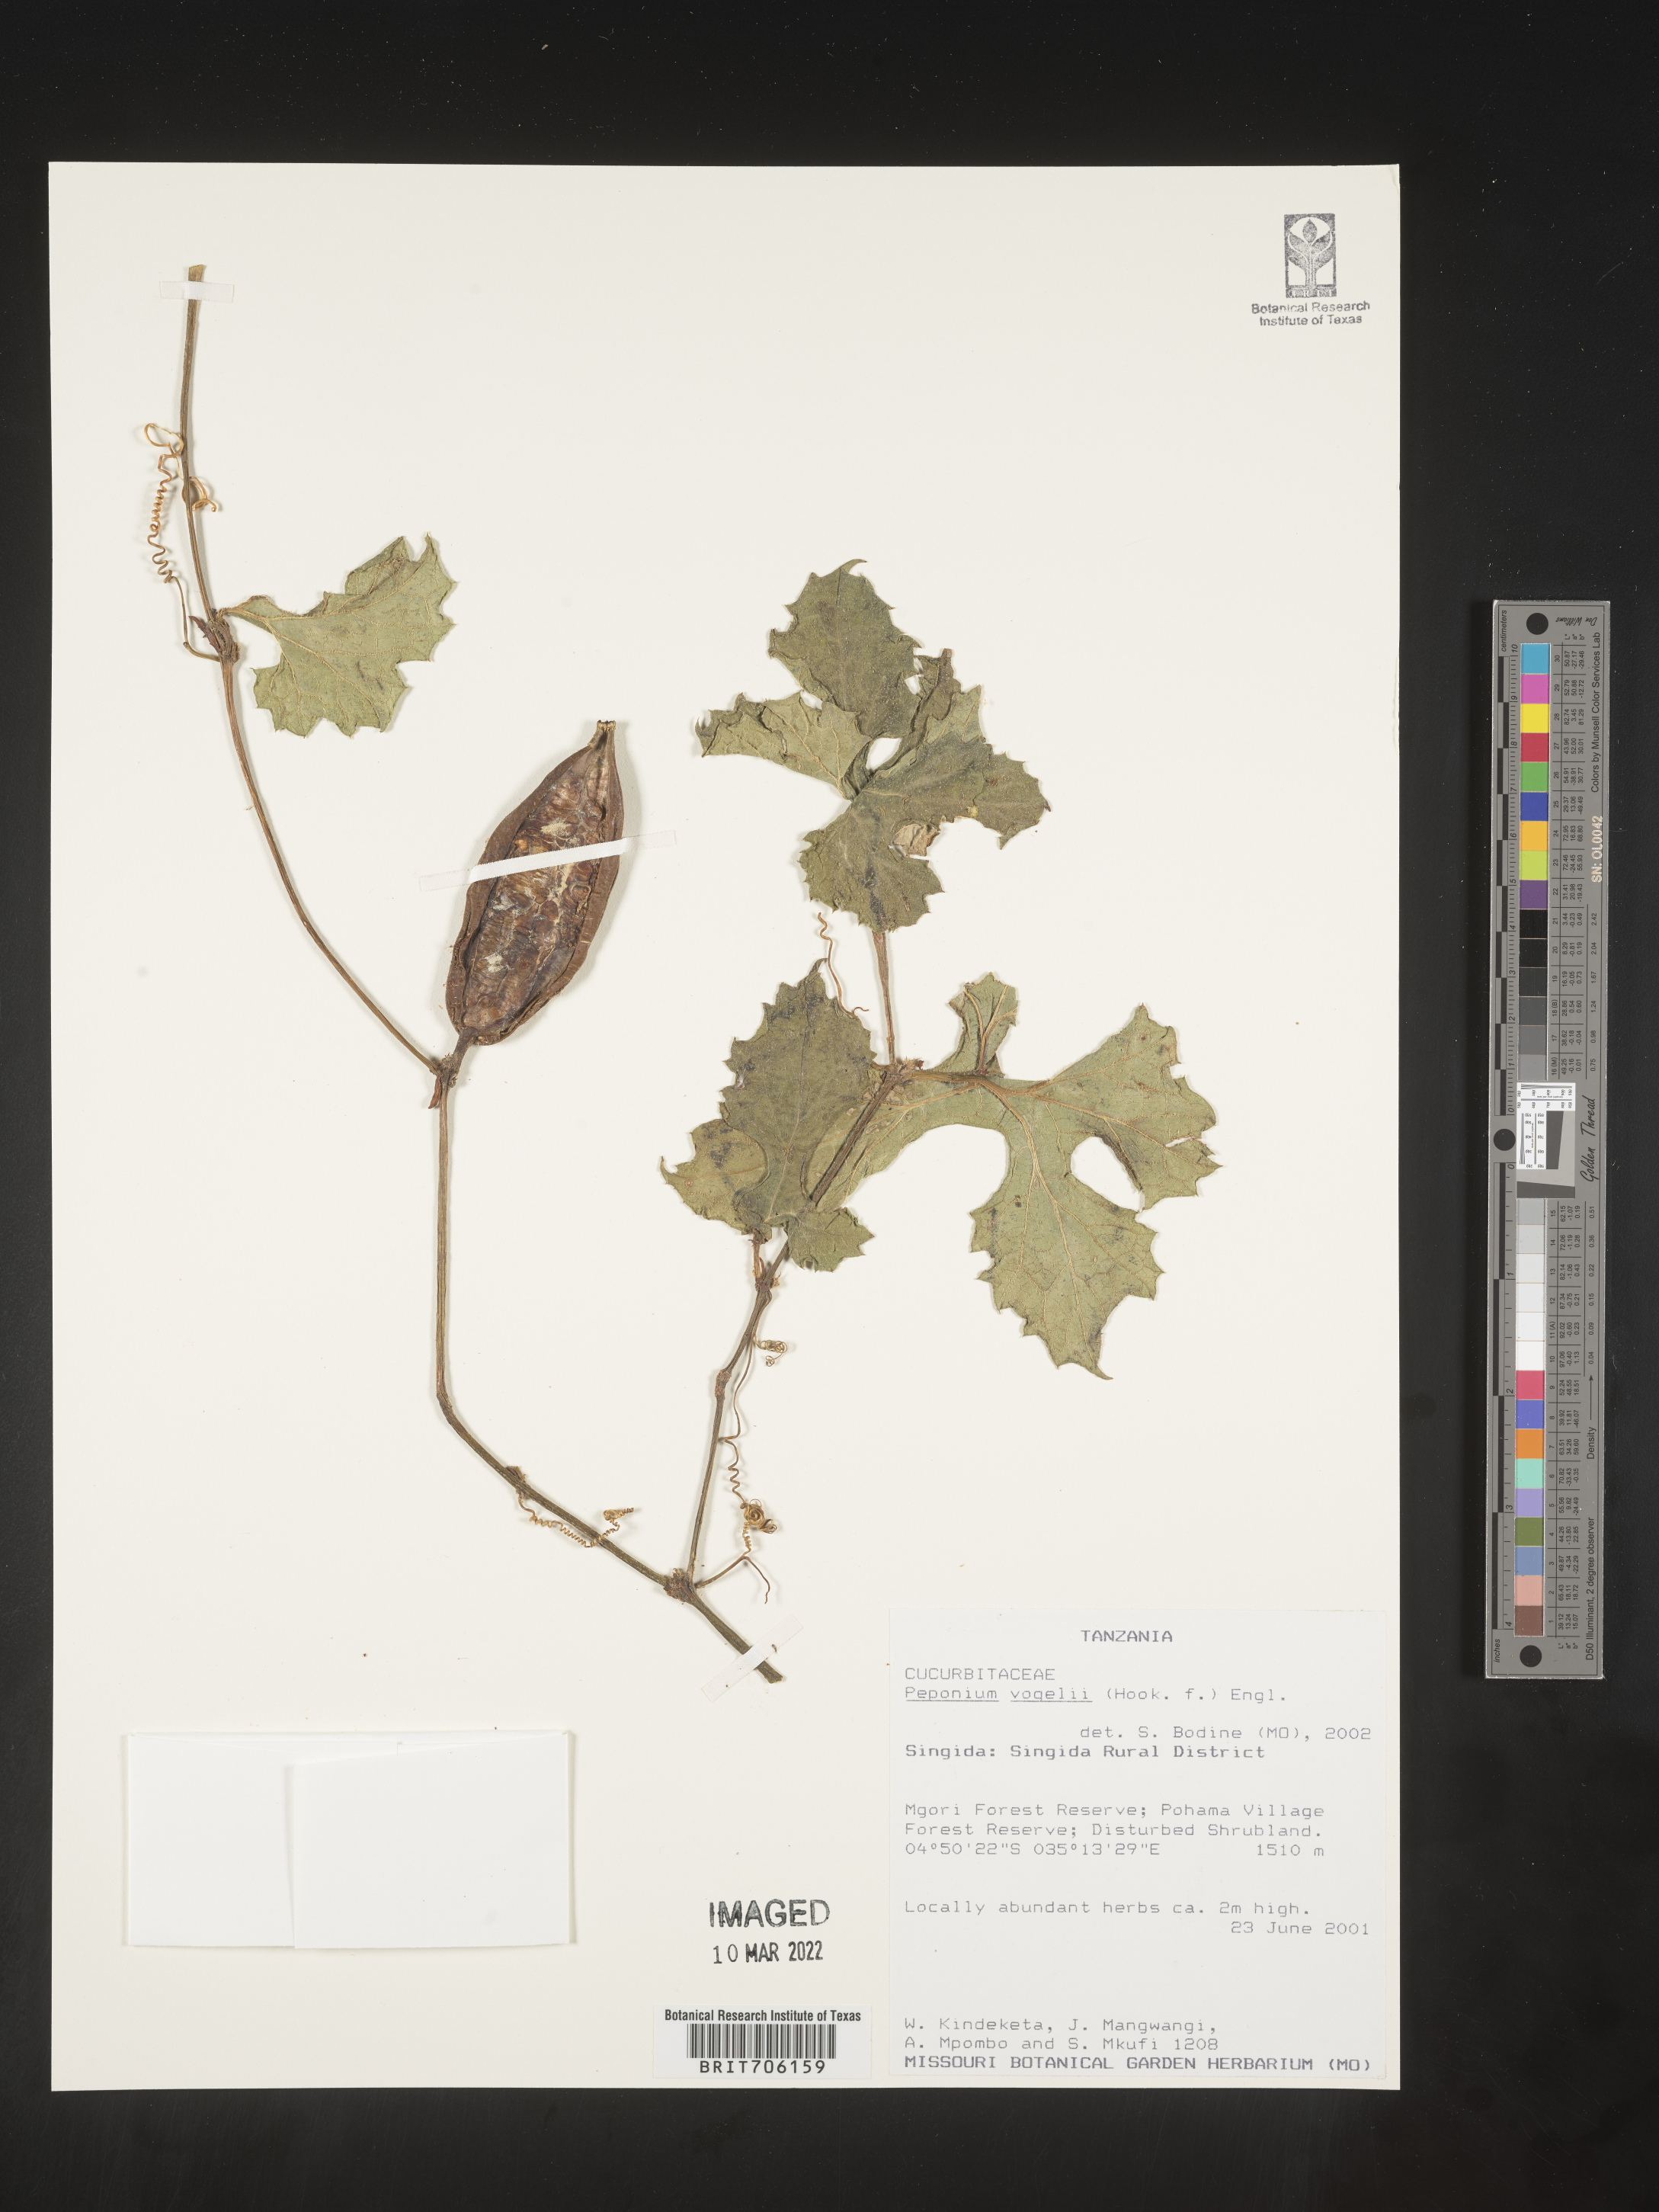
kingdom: Plantae
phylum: Tracheophyta
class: Magnoliopsida
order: Cucurbitales
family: Cucurbitaceae
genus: Peponium
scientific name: Peponium
